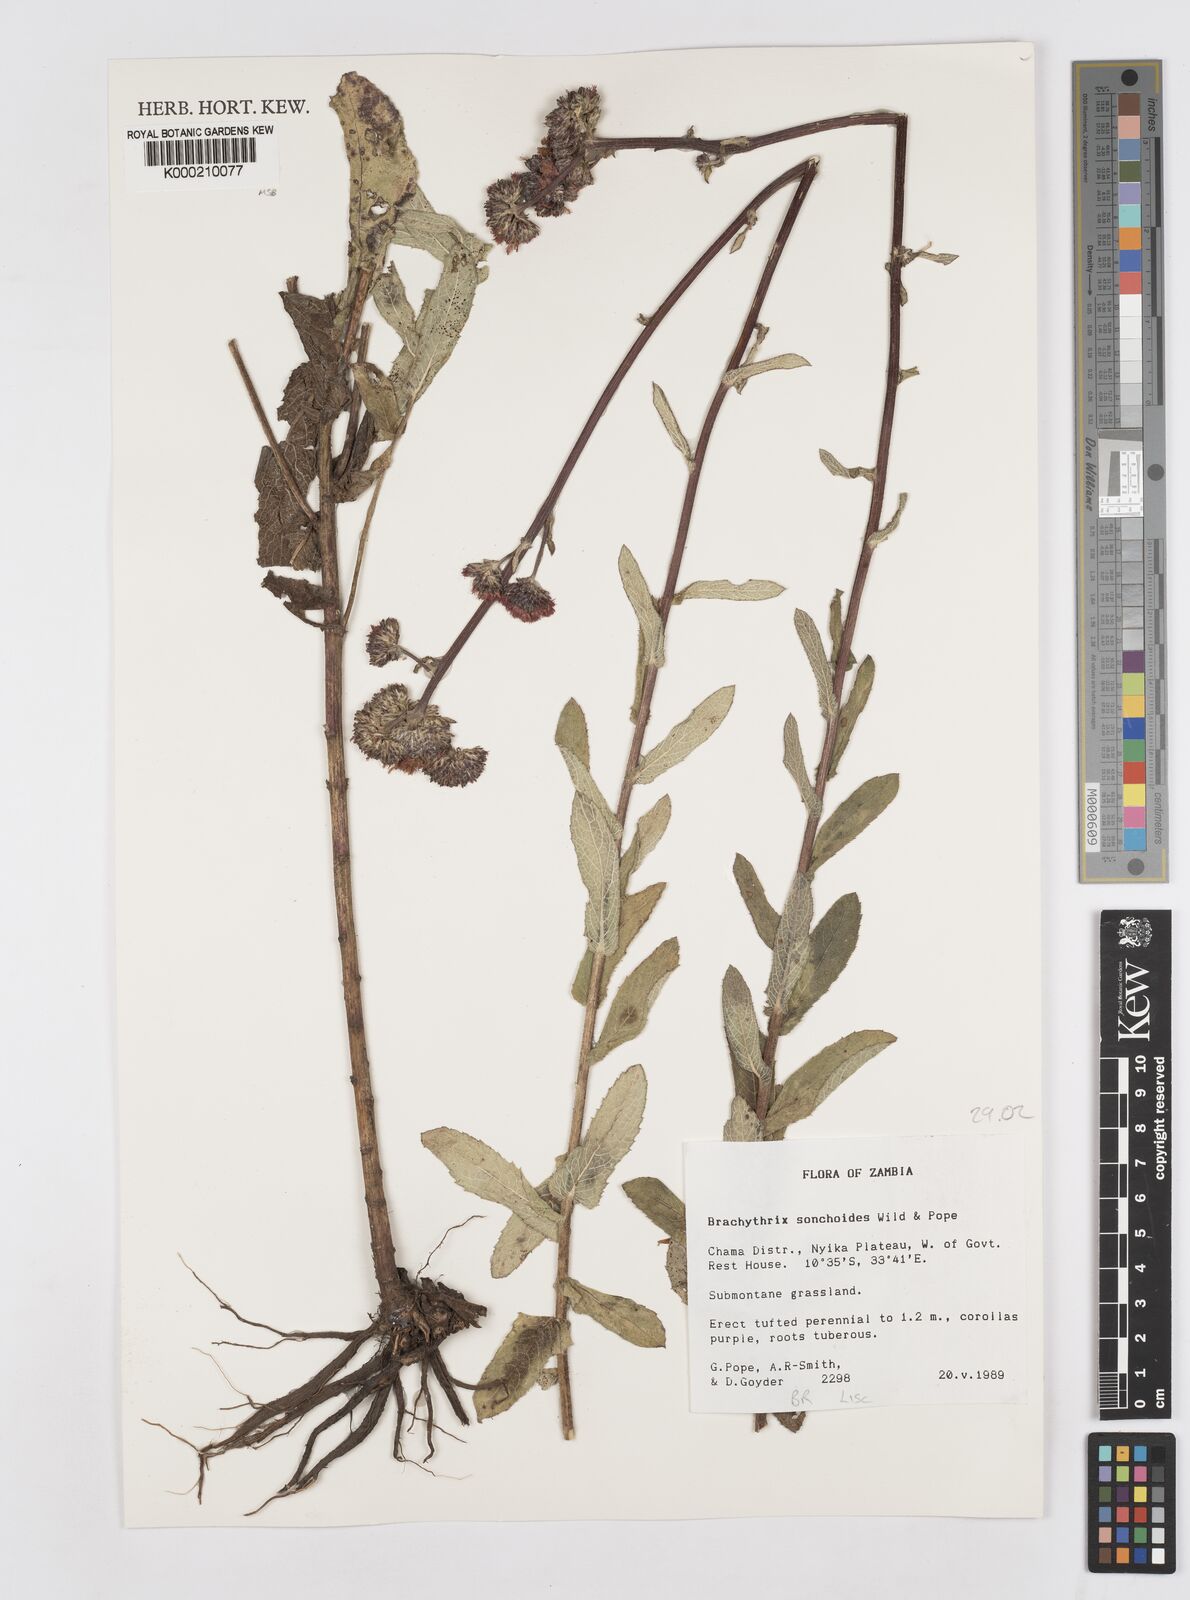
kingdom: Plantae
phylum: Tracheophyta
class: Magnoliopsida
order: Asterales
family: Asteraceae
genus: Brachythrix
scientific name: Brachythrix sonchoides
